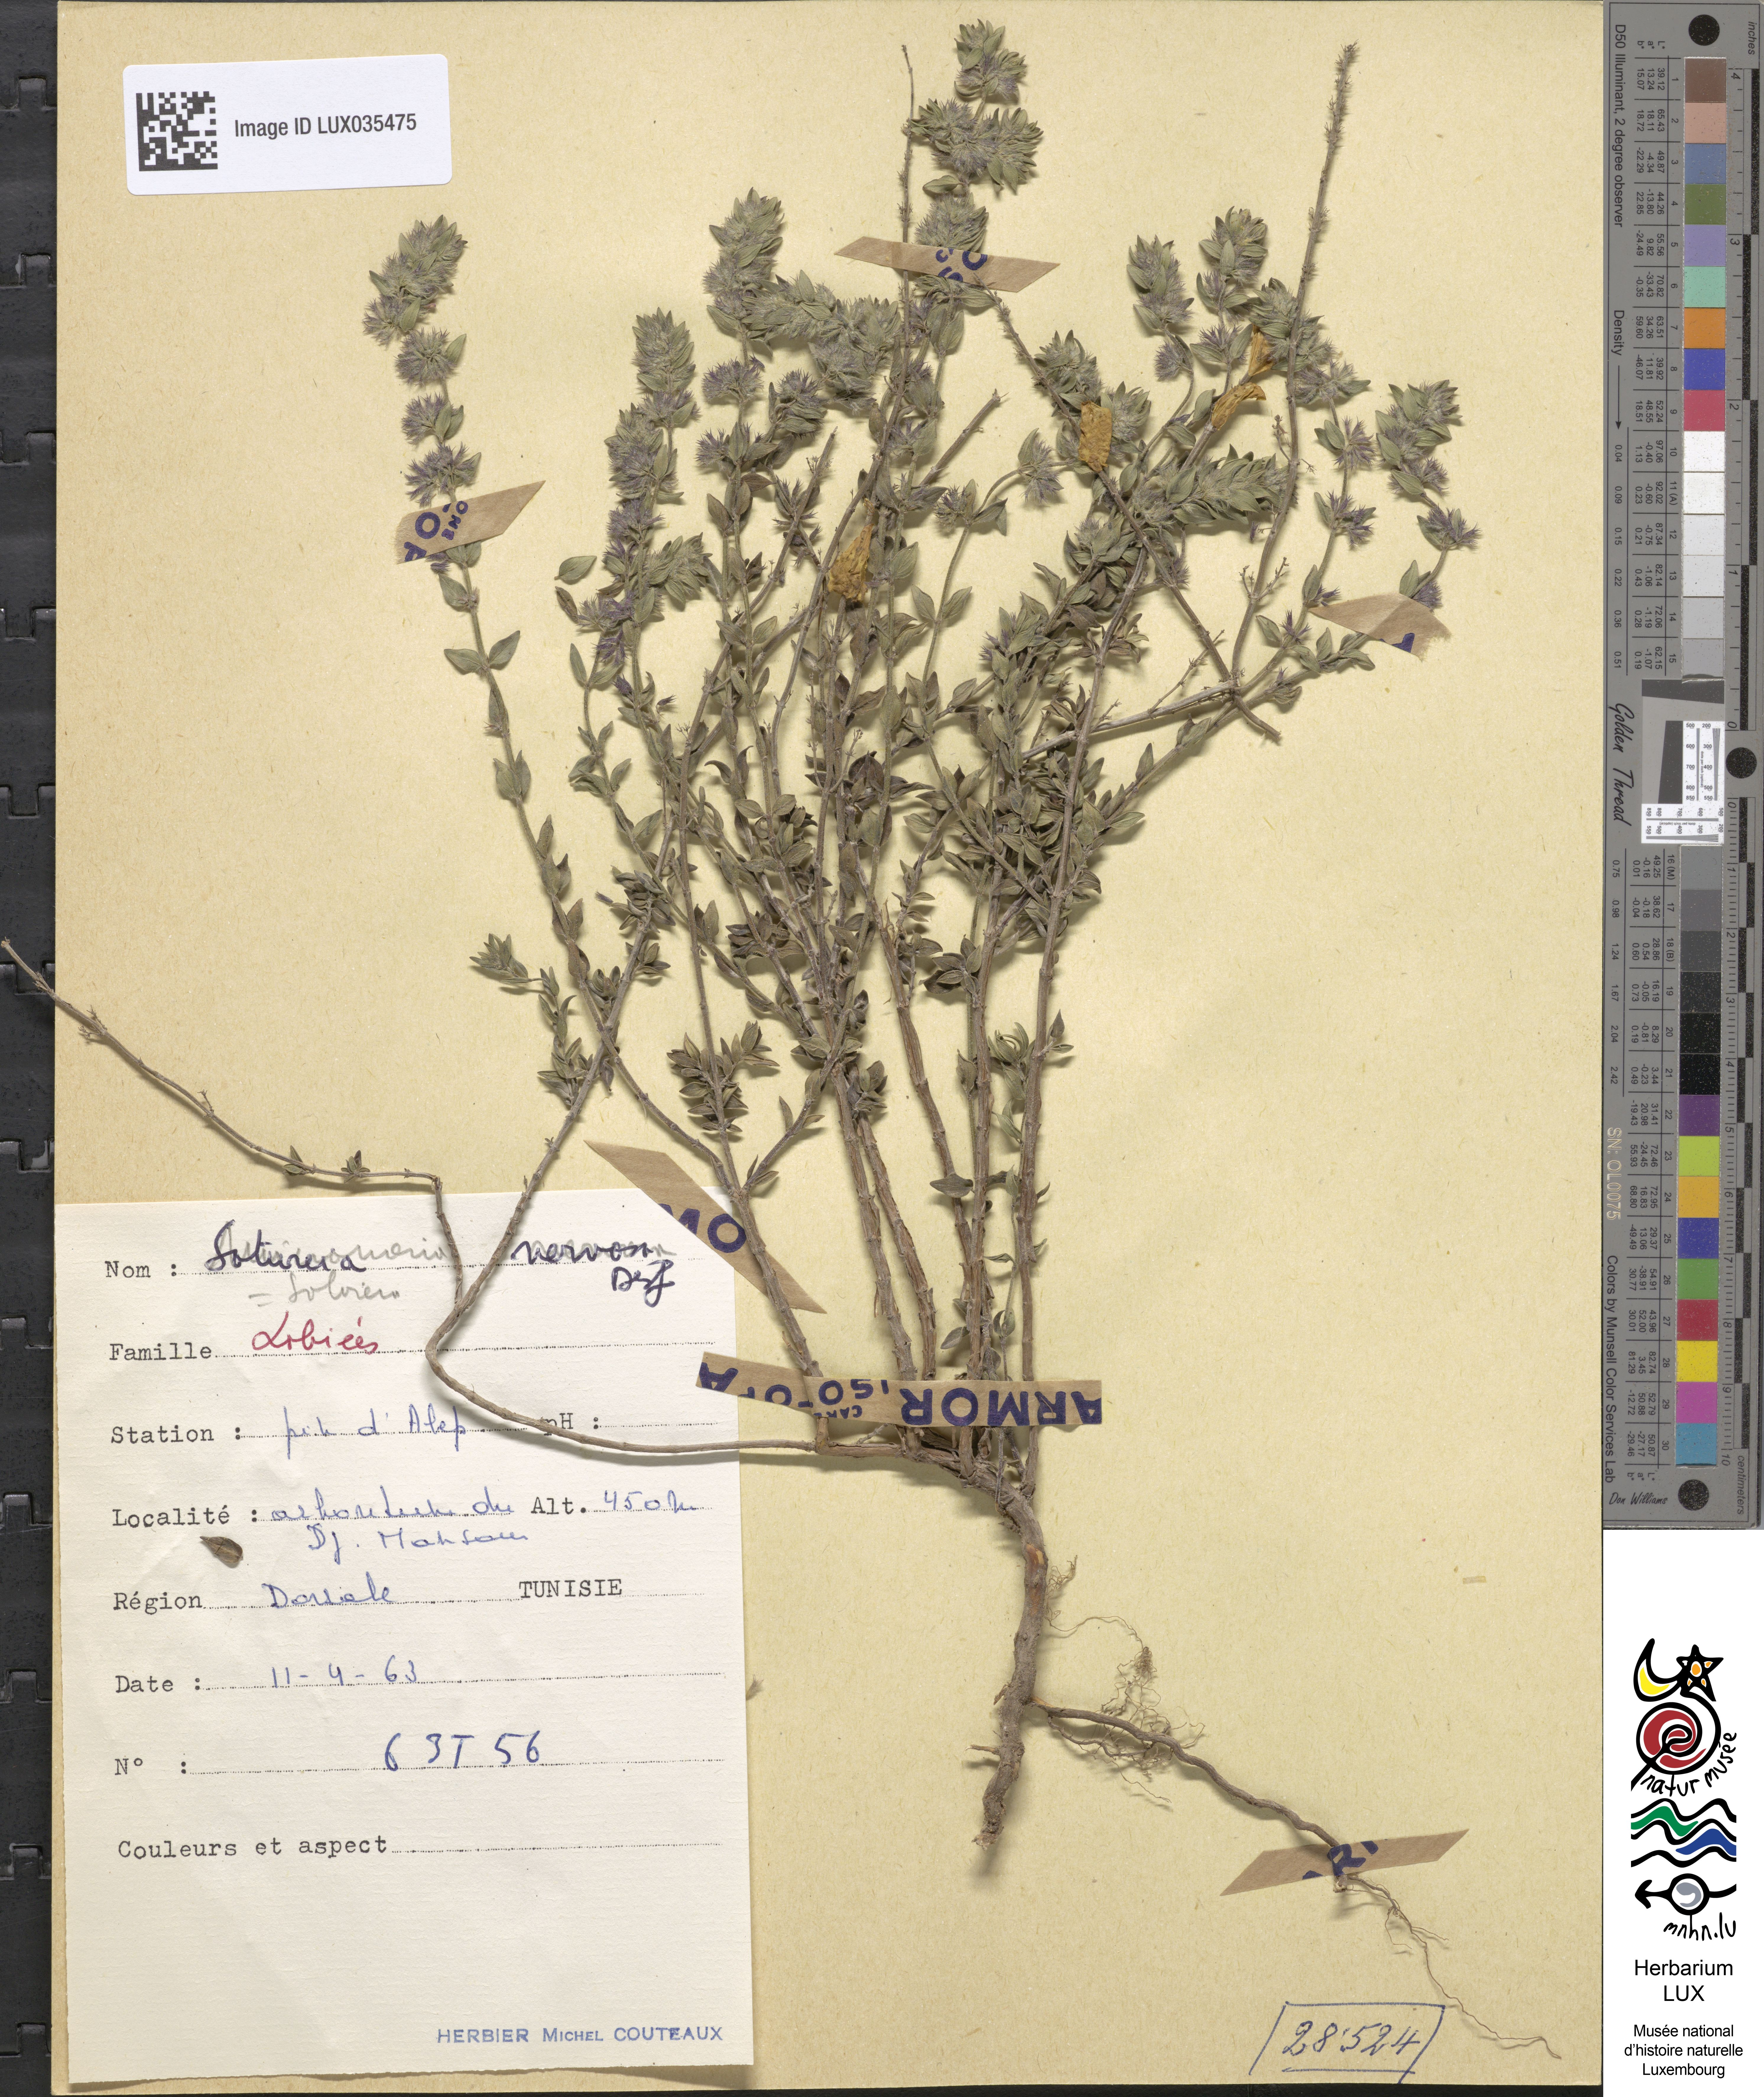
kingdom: Plantae
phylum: Tracheophyta
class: Magnoliopsida
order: Lamiales
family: Lamiaceae
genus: Micromeria
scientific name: Micromeria nervosa
